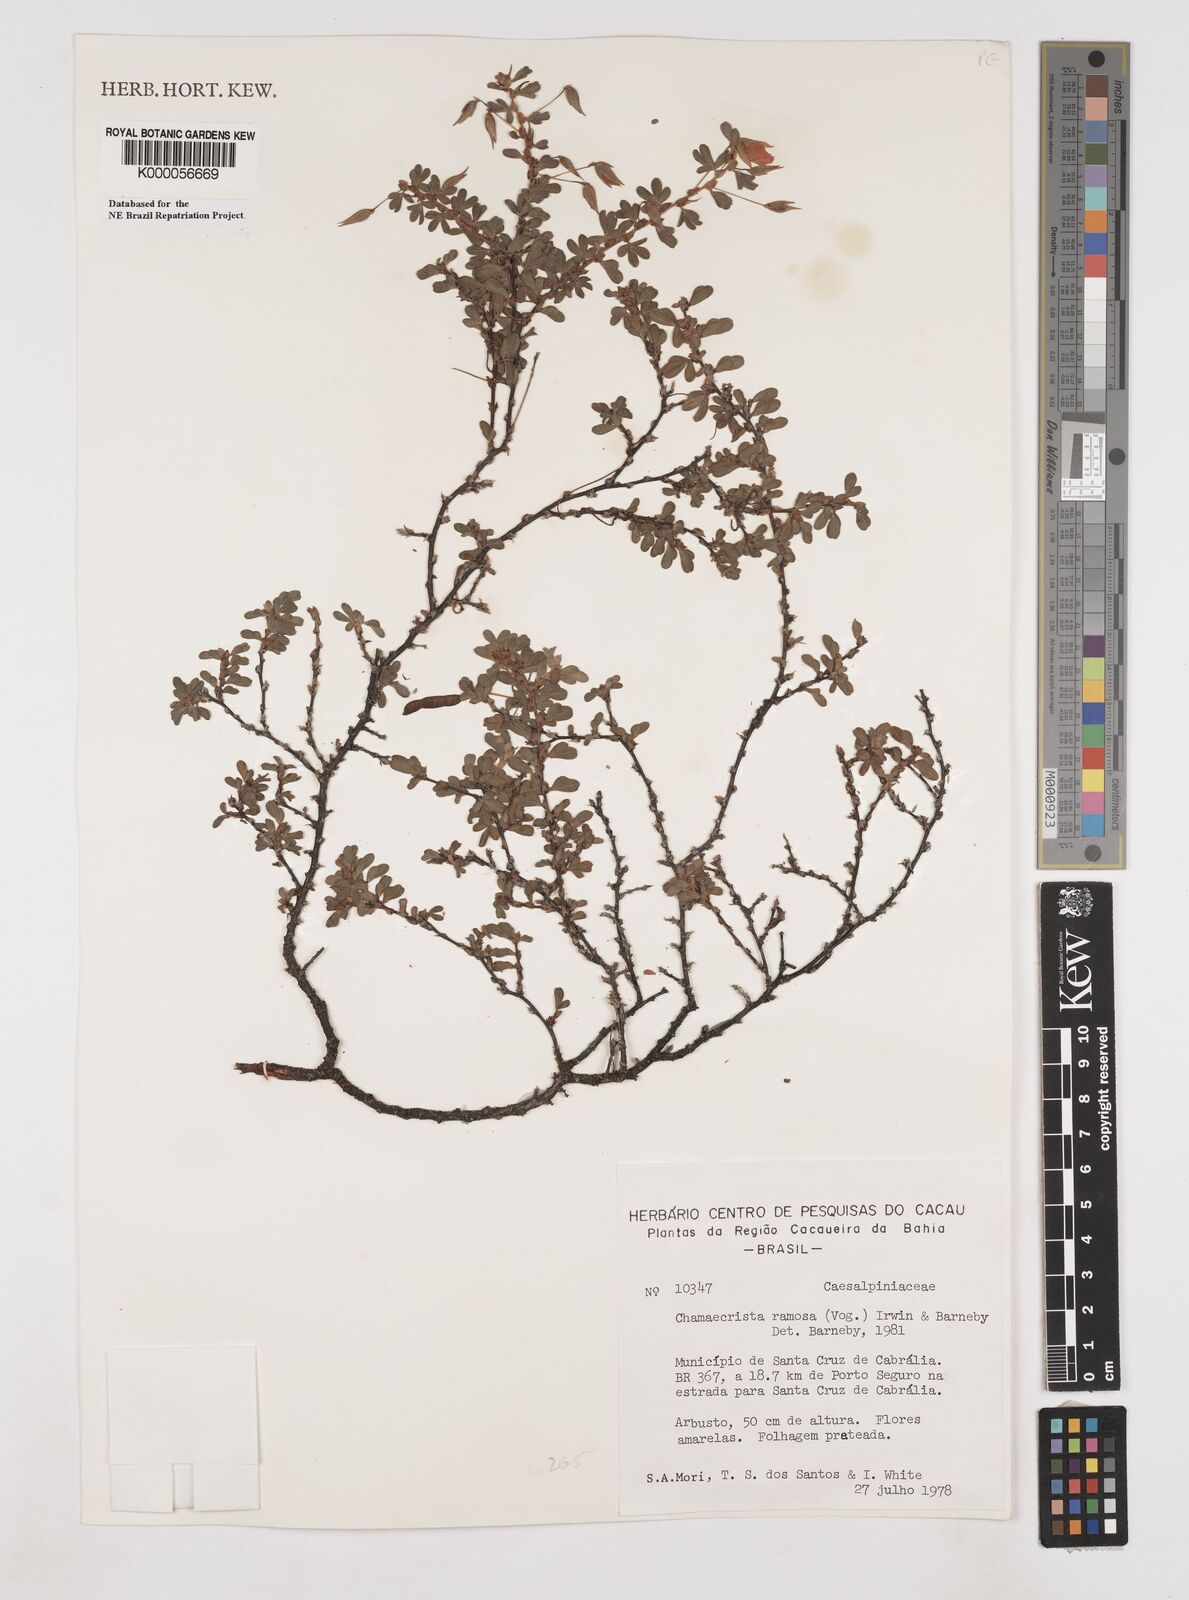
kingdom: Plantae
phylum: Tracheophyta
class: Magnoliopsida
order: Fabales
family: Fabaceae
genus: Chamaecrista
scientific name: Chamaecrista ramosa
